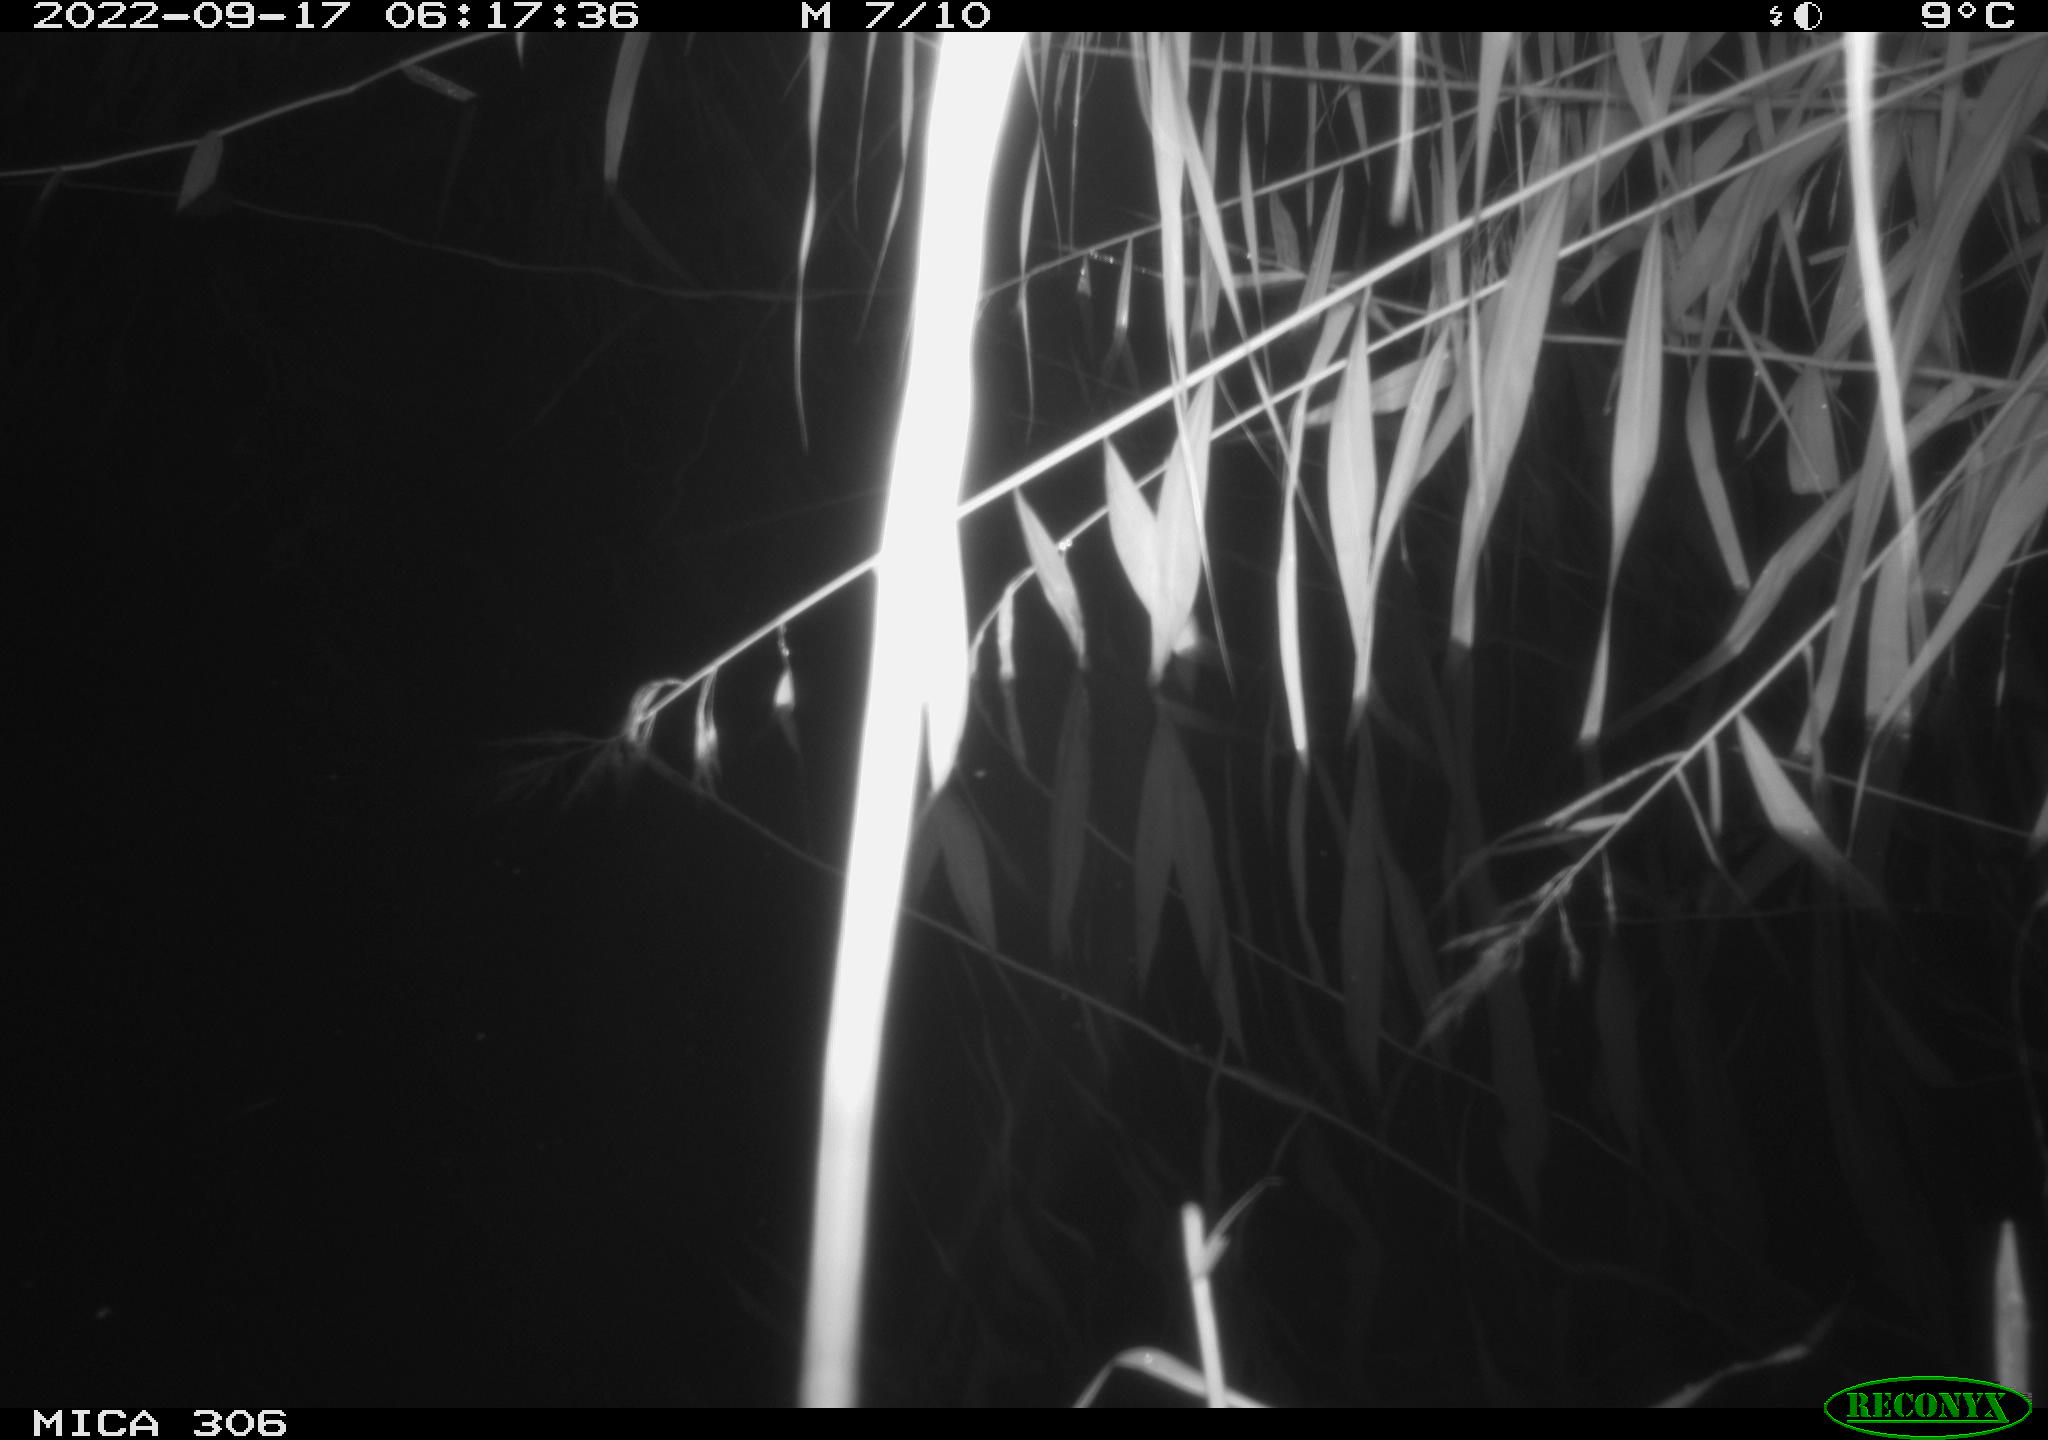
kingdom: Animalia
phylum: Chordata
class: Mammalia
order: Rodentia
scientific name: Rodentia
